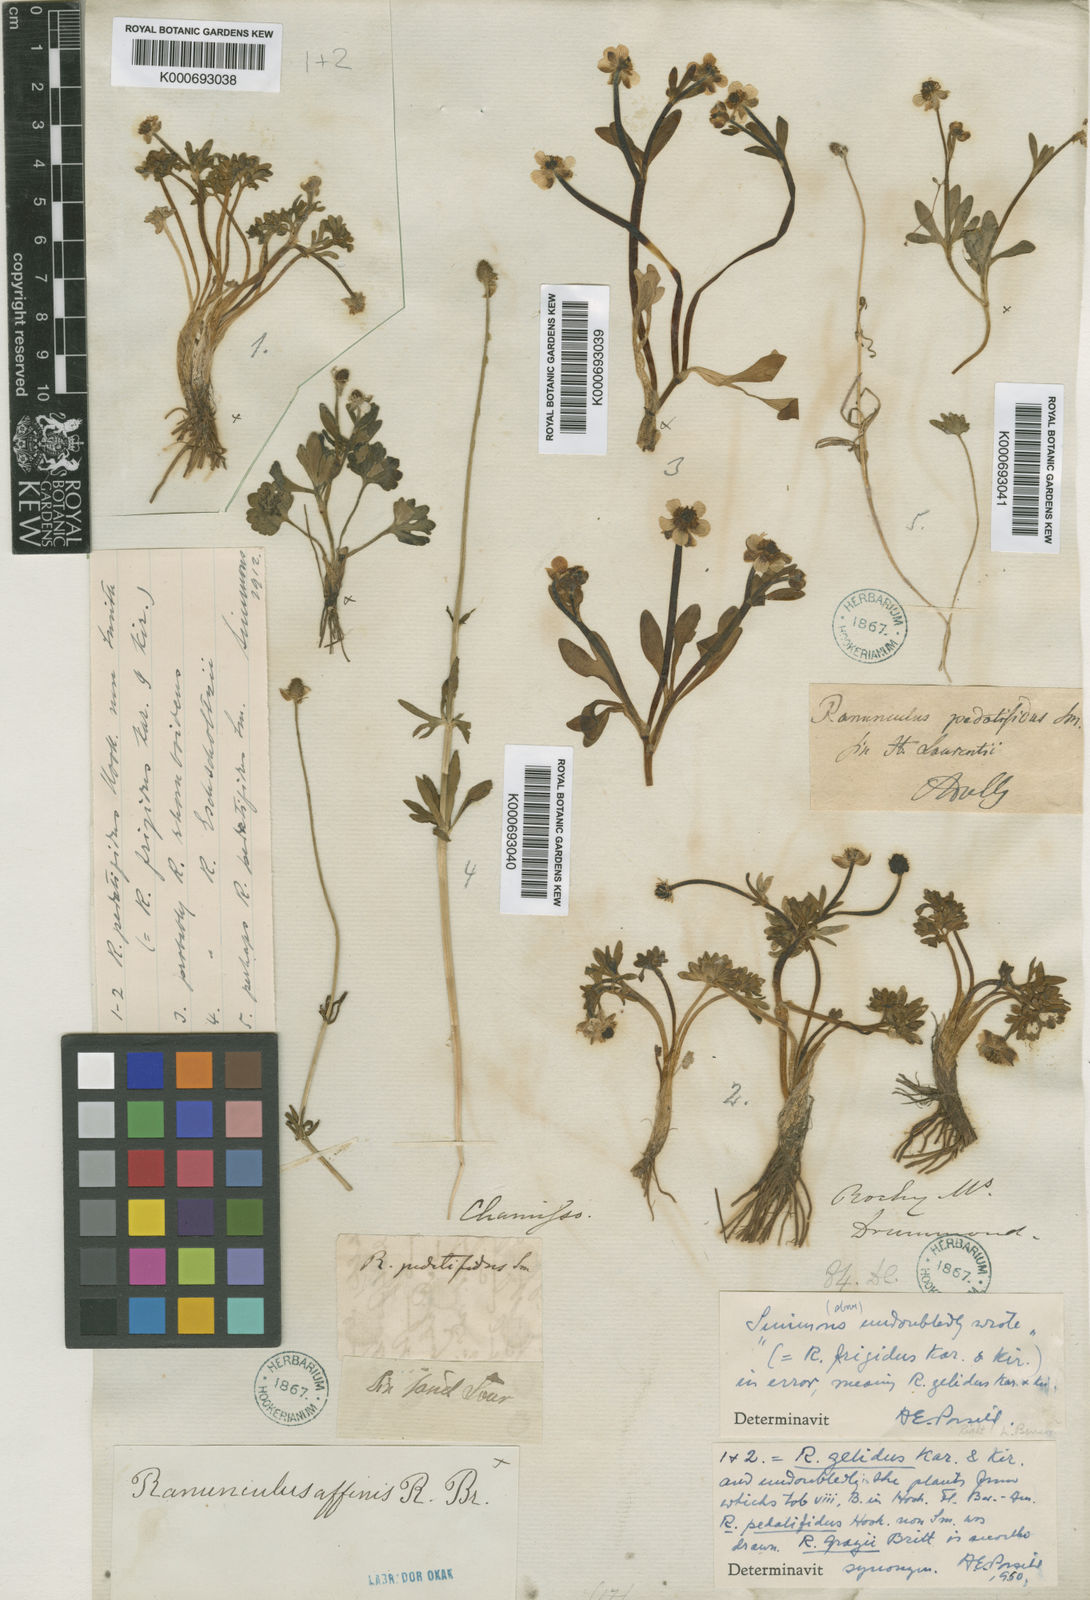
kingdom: Plantae
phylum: Tracheophyta
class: Magnoliopsida
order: Ranunculales
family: Ranunculaceae
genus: Ranunculus
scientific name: Ranunculus arcticus
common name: Bird's-foot buttercup
